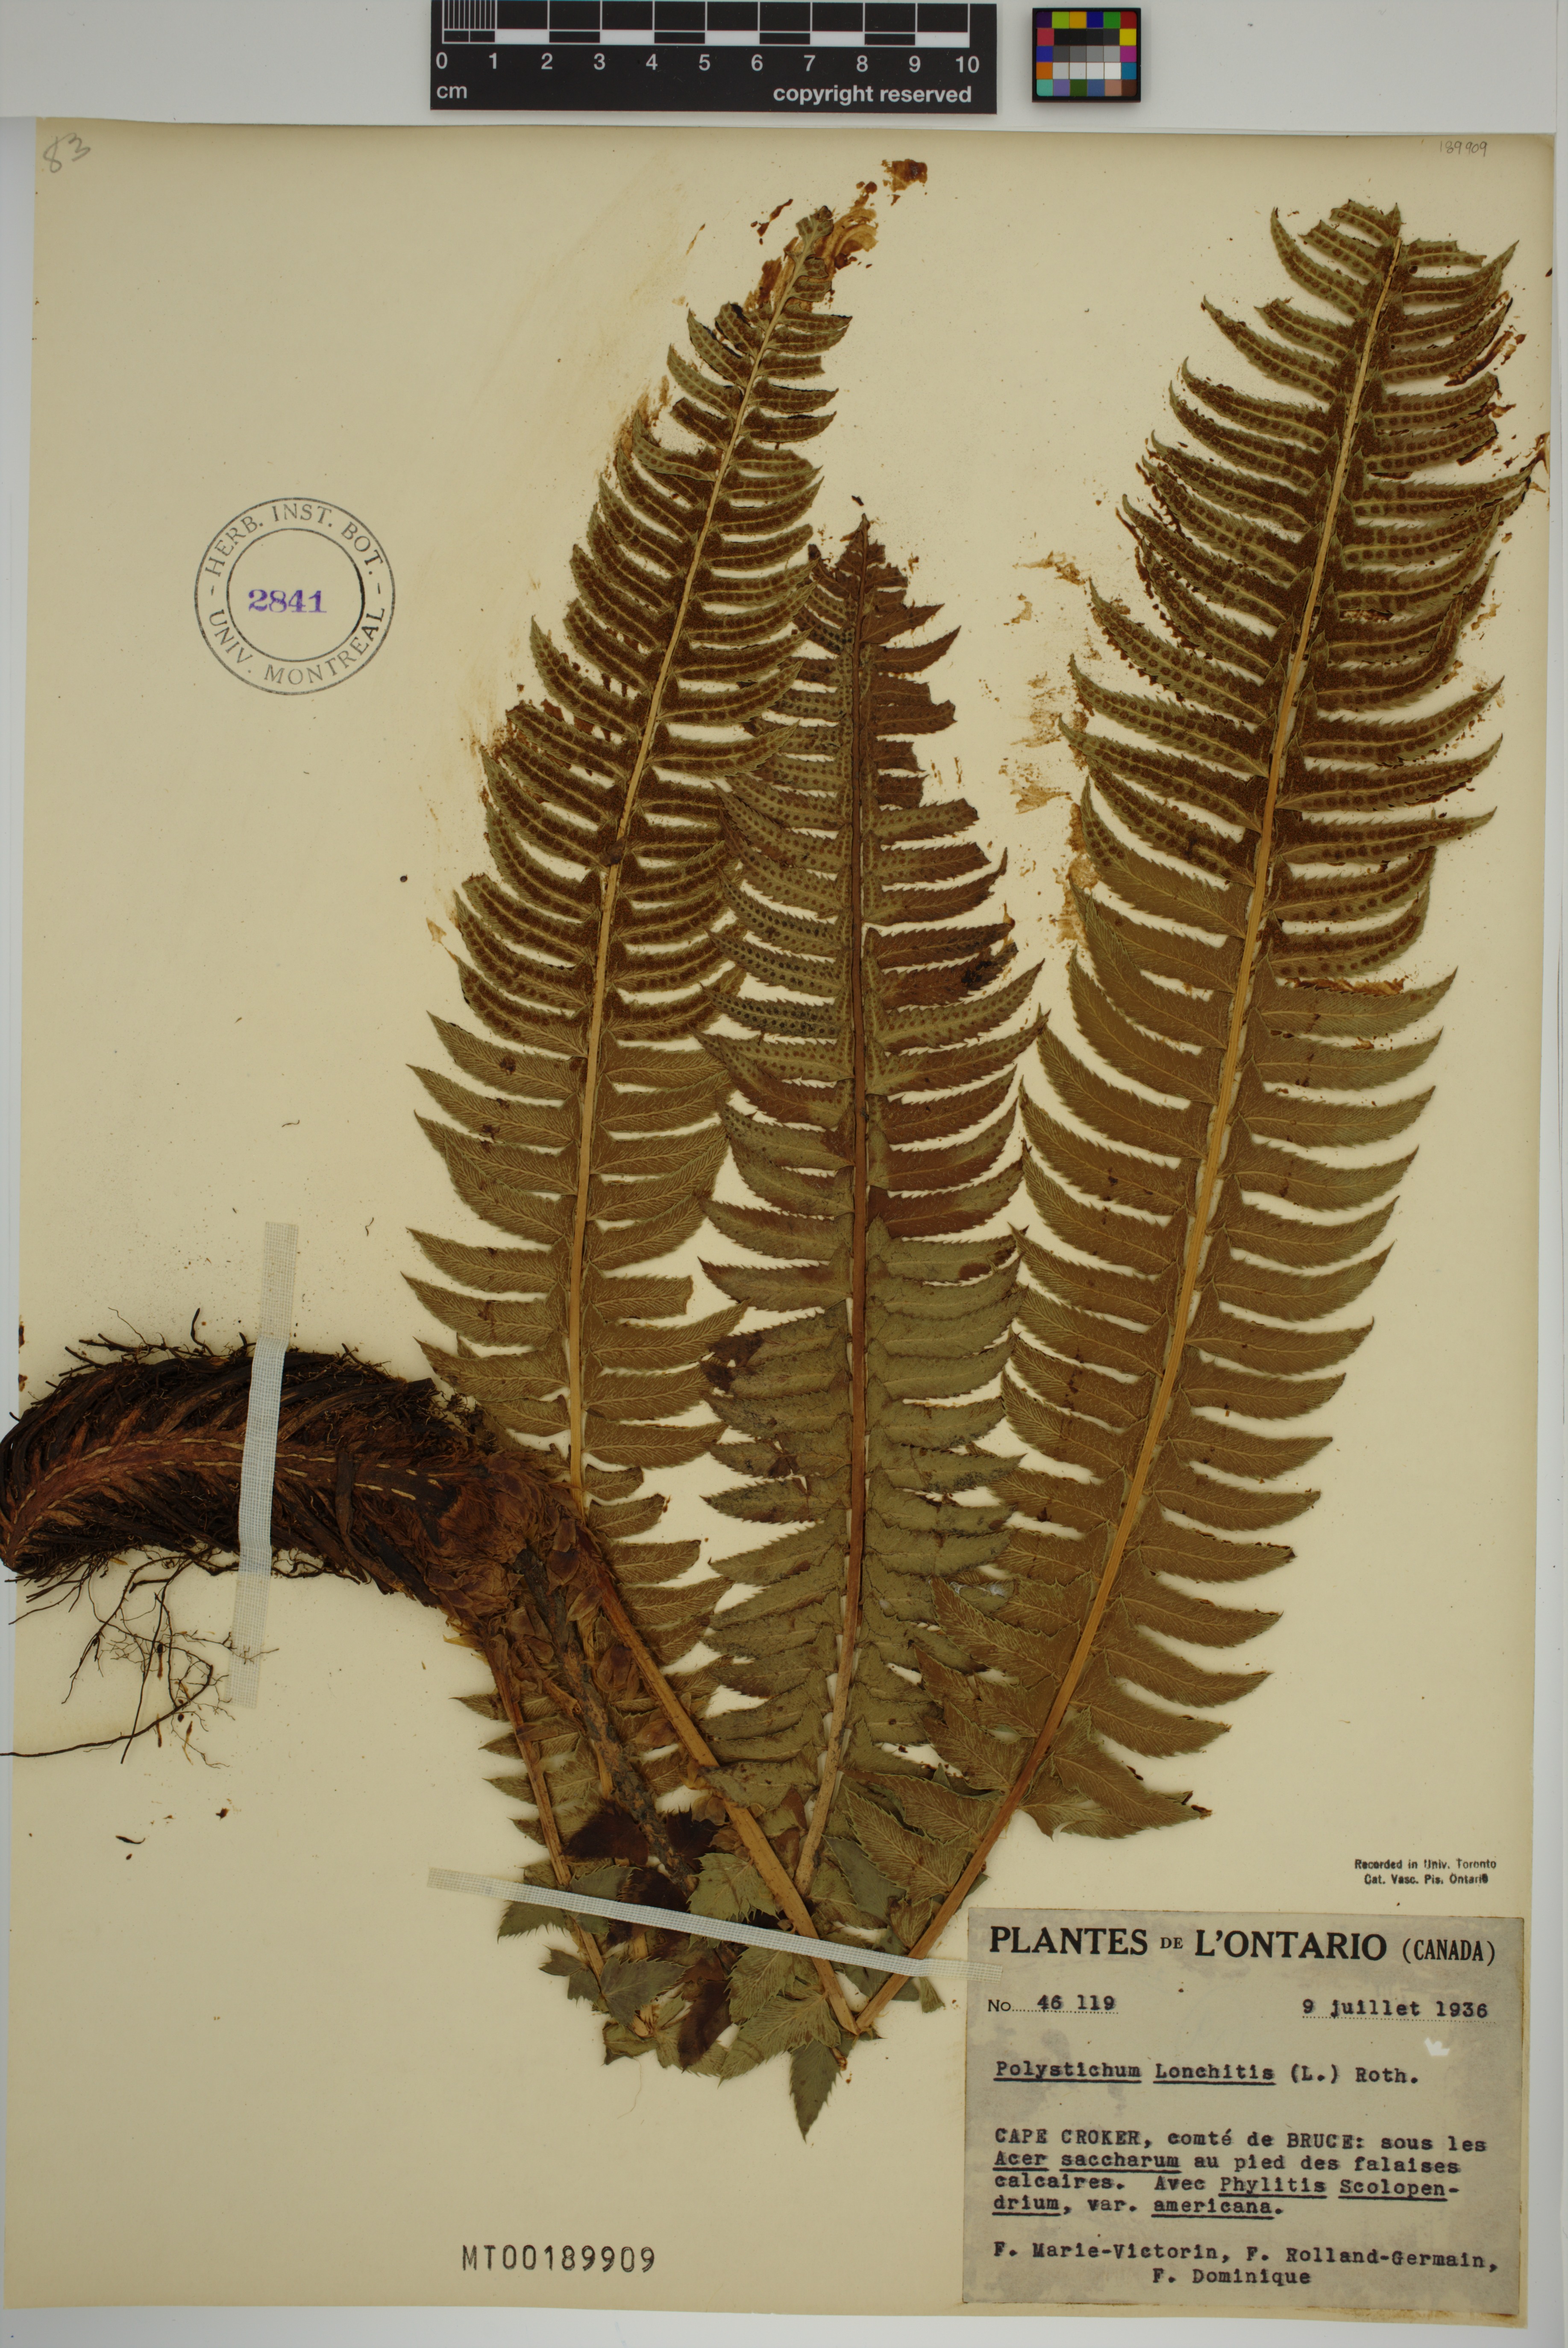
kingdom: Plantae
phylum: Tracheophyta
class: Polypodiopsida
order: Polypodiales
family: Dryopteridaceae
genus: Polystichum
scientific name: Polystichum lonchitis
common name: Holly fern
